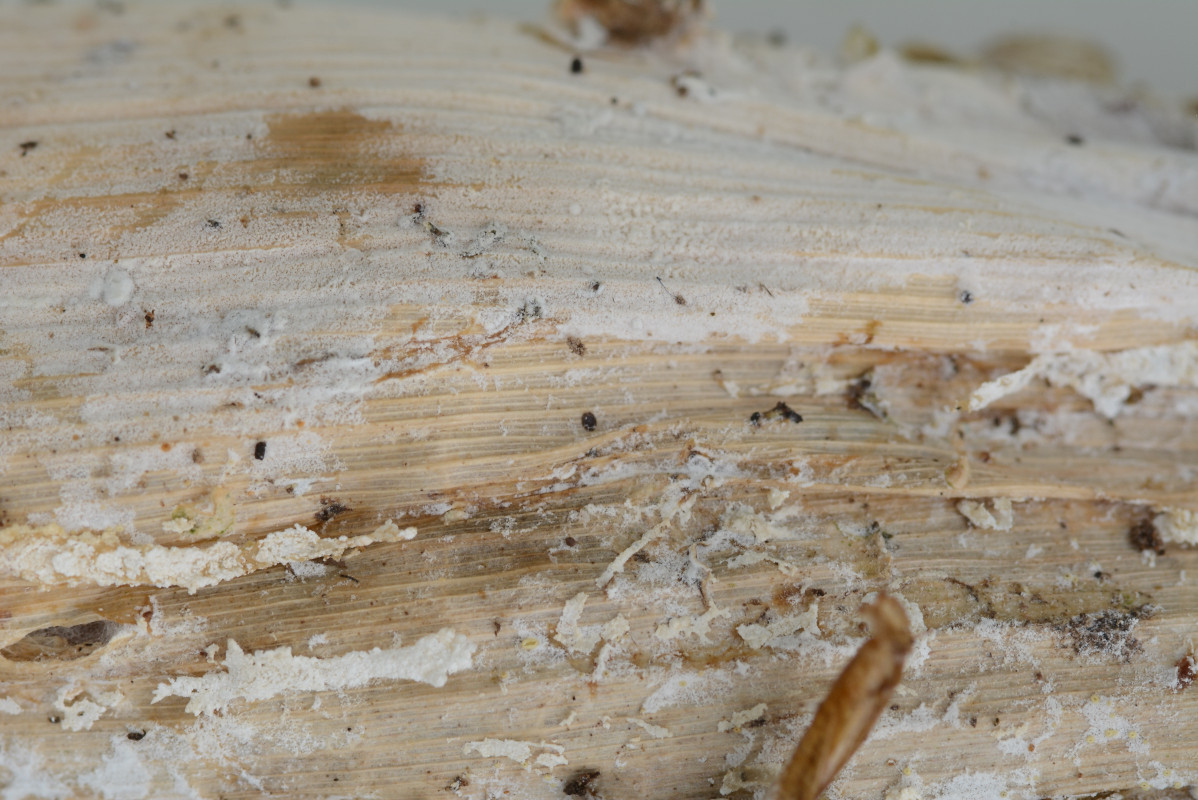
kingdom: Fungi
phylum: Basidiomycota
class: Agaricomycetes
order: Corticiales
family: Corticiaceae
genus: Lyomyces
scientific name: Lyomyces sambuci
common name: almindelig hyldehinde
